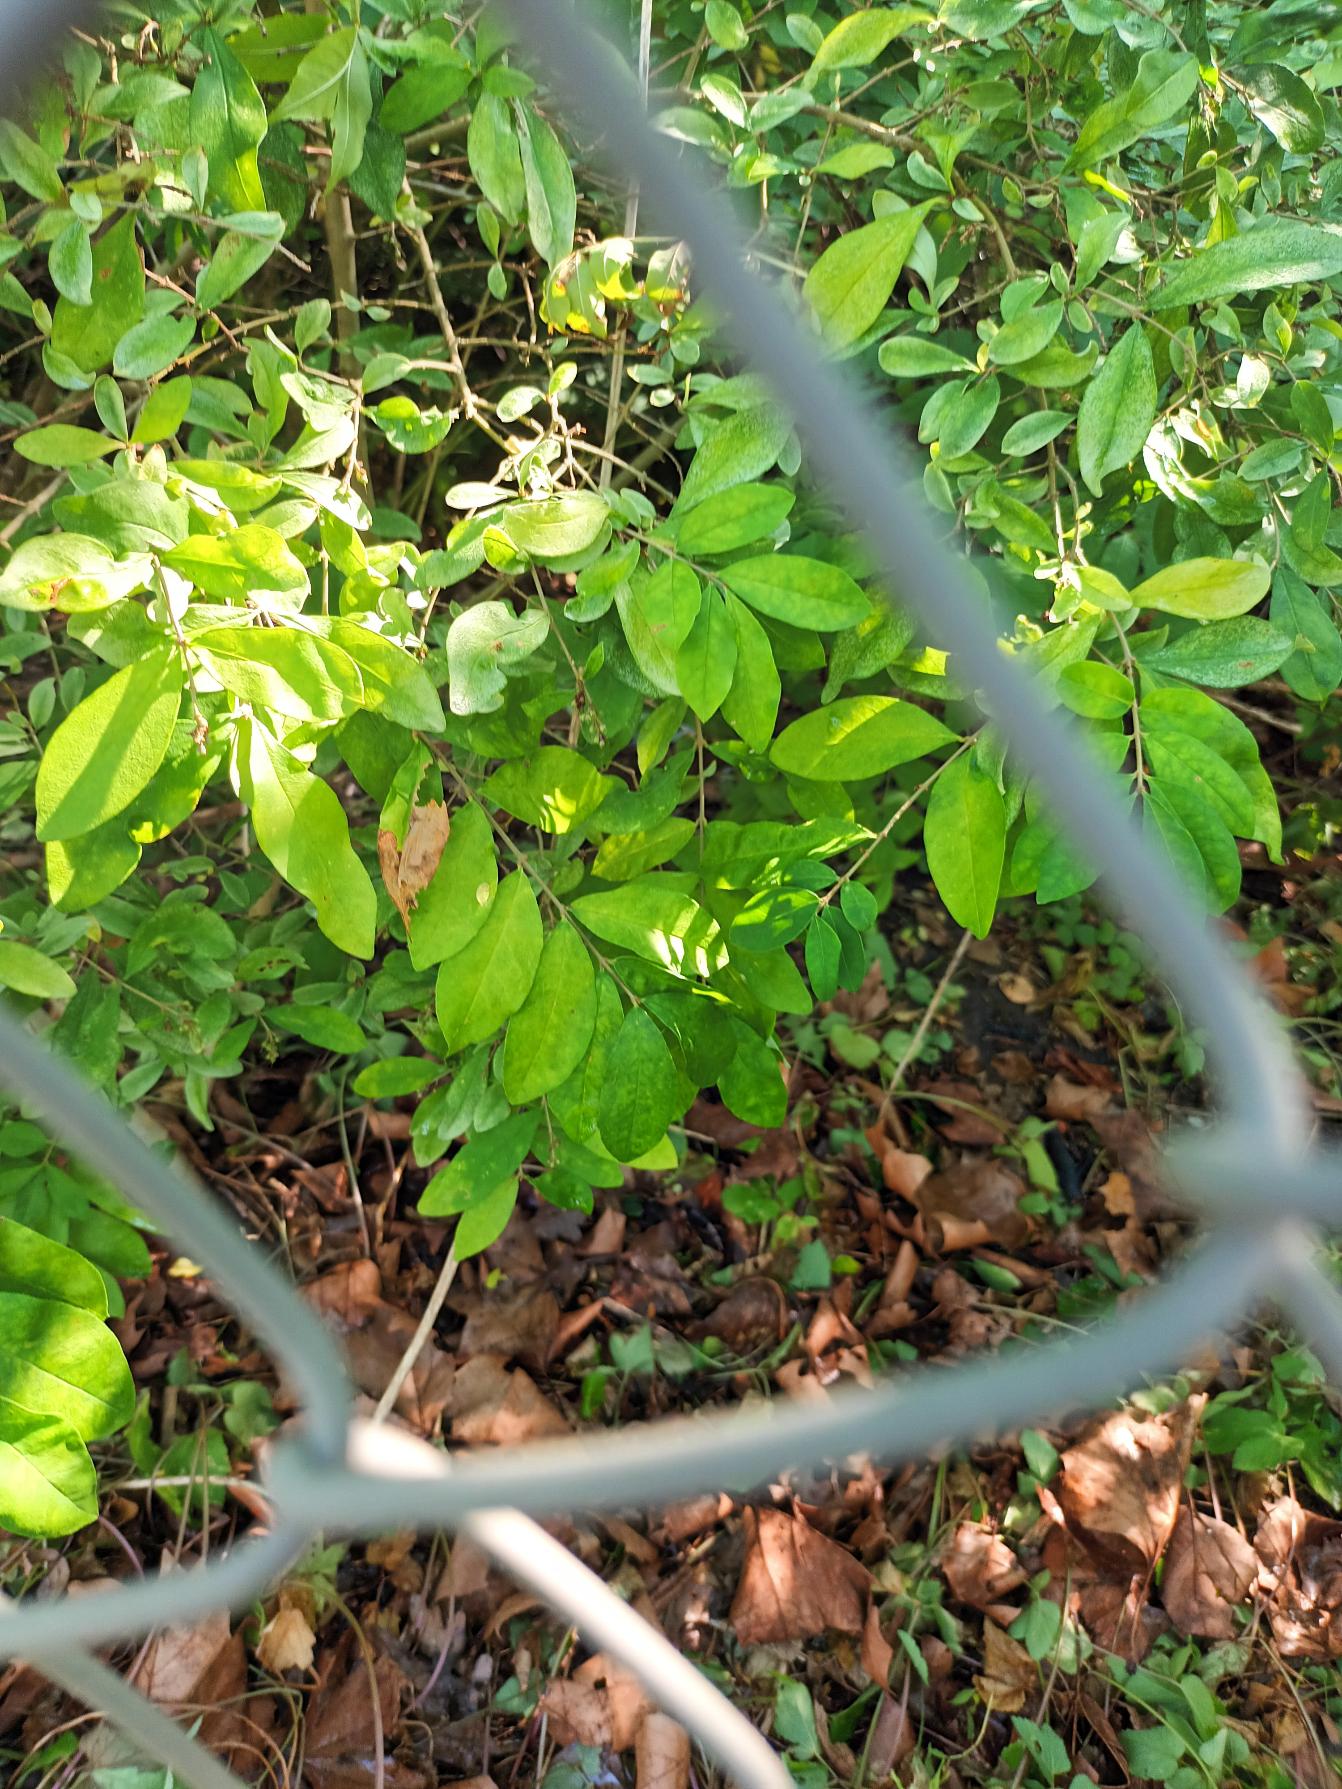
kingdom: Plantae
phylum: Tracheophyta
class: Magnoliopsida
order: Lamiales
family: Oleaceae
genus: Ligustrum
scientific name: Ligustrum obtusifolium
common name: Butbladet liguster
